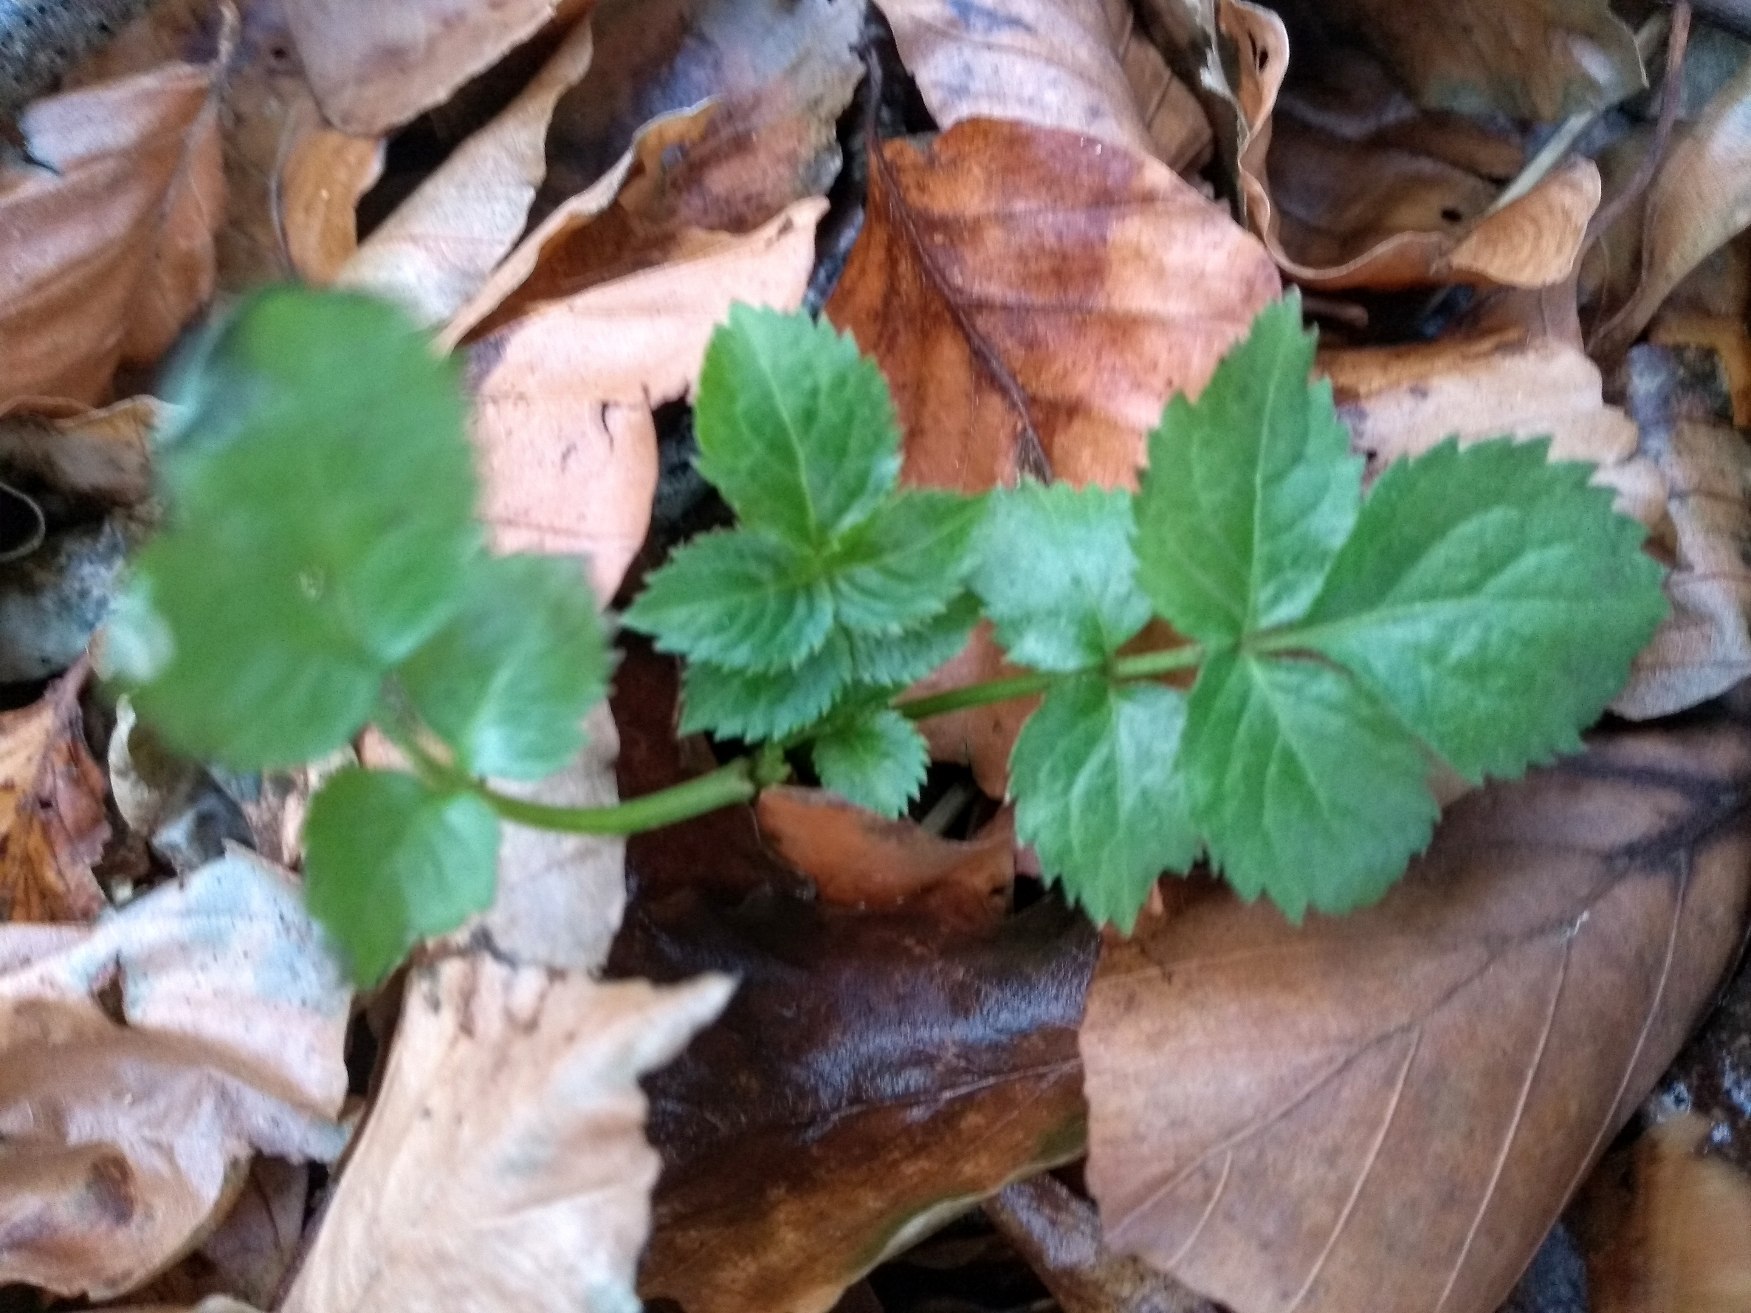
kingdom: Plantae
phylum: Tracheophyta
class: Magnoliopsida
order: Apiales
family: Apiaceae
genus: Aegopodium
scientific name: Aegopodium podagraria
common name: Skvalderkål
